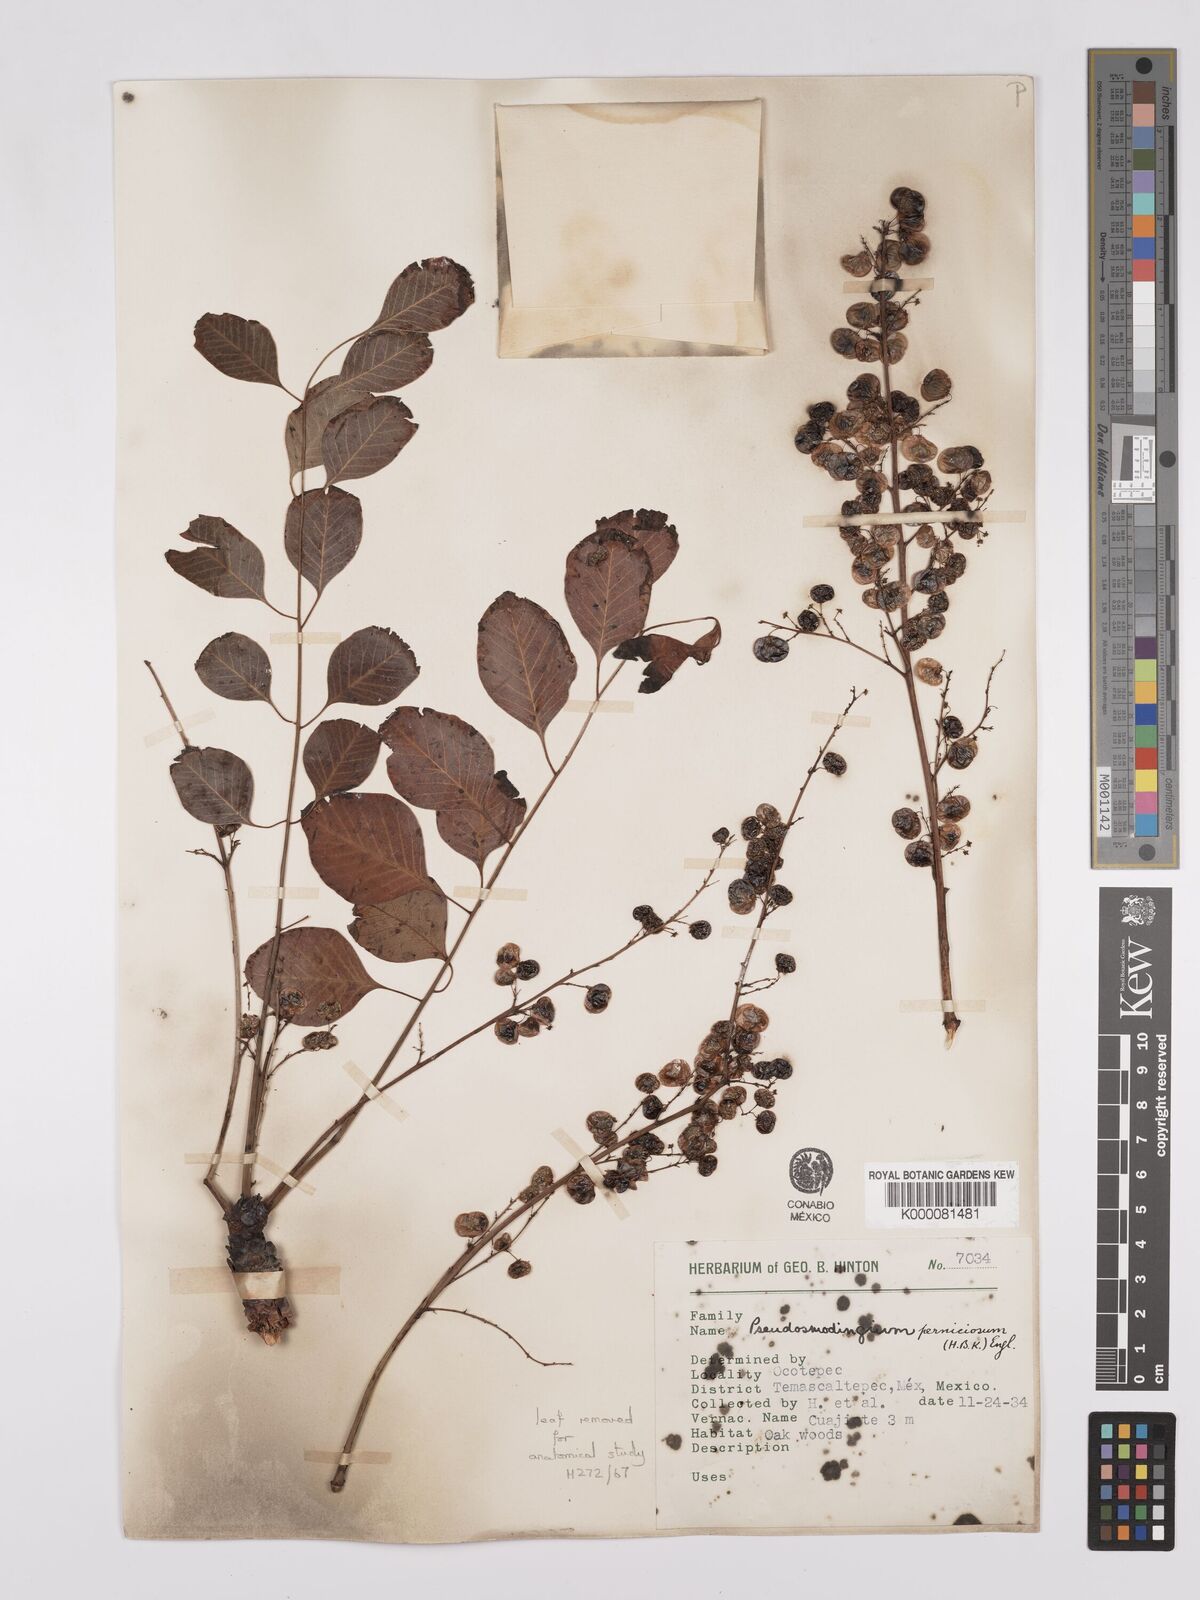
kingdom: Plantae
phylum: Tracheophyta
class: Magnoliopsida
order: Sapindales
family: Anacardiaceae
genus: Pseudosmodingium
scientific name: Pseudosmodingium perniciosum
